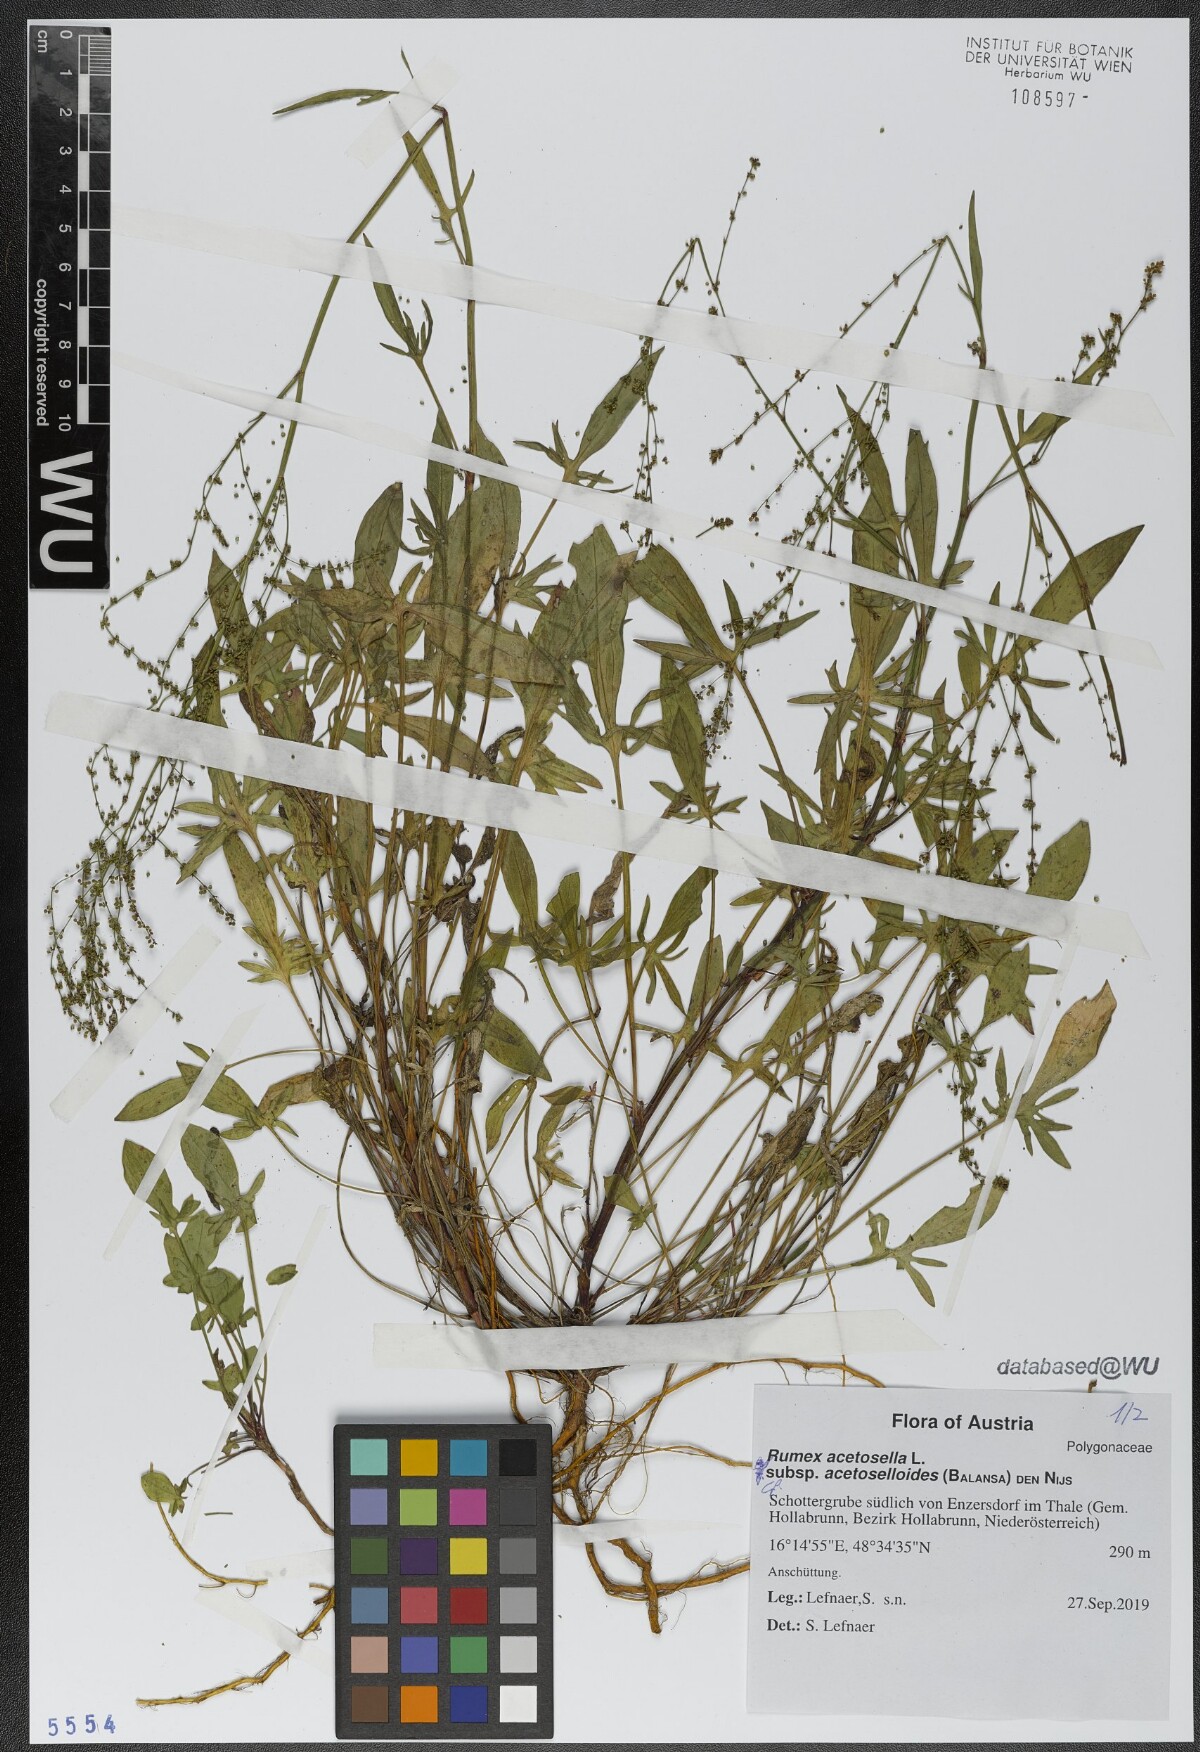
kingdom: Plantae
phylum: Tracheophyta
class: Magnoliopsida
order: Caryophyllales
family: Polygonaceae
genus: Rumex
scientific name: Rumex acetosella
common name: Common sheep sorrel
